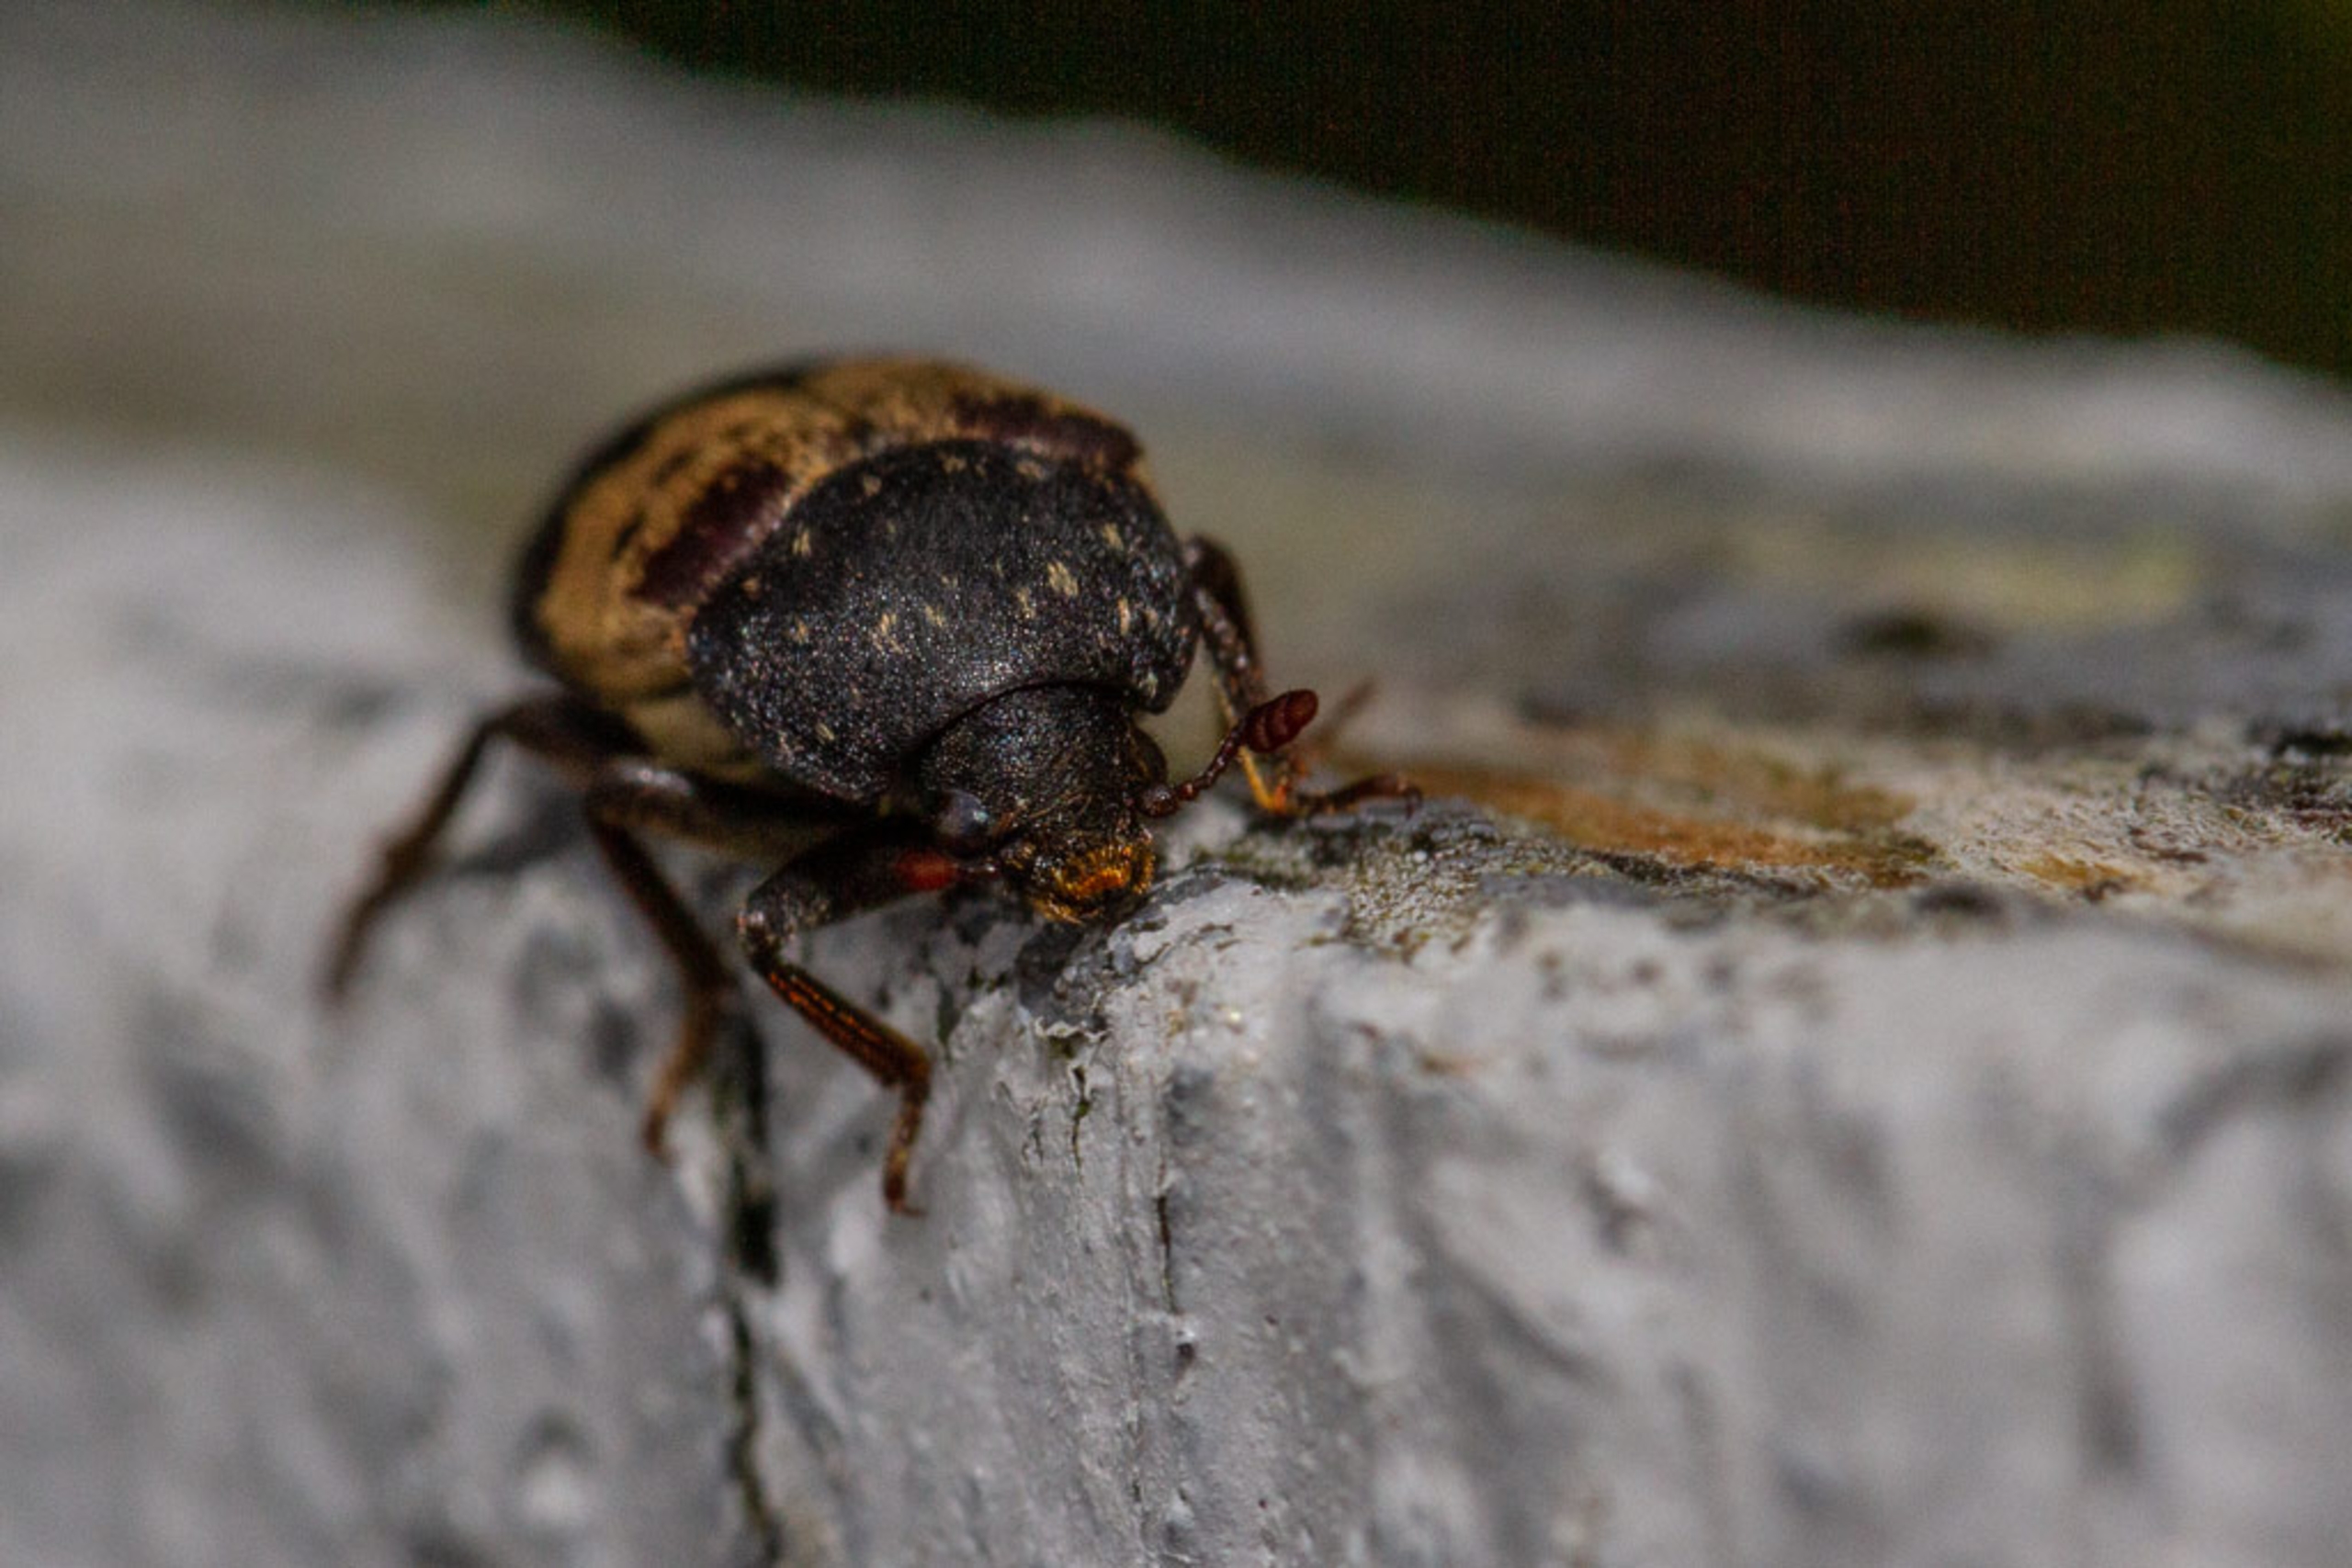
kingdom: Animalia
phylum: Arthropoda
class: Insecta
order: Coleoptera
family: Dermestidae
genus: Dermestes
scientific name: Dermestes lardarius
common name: Flæskeklanner
